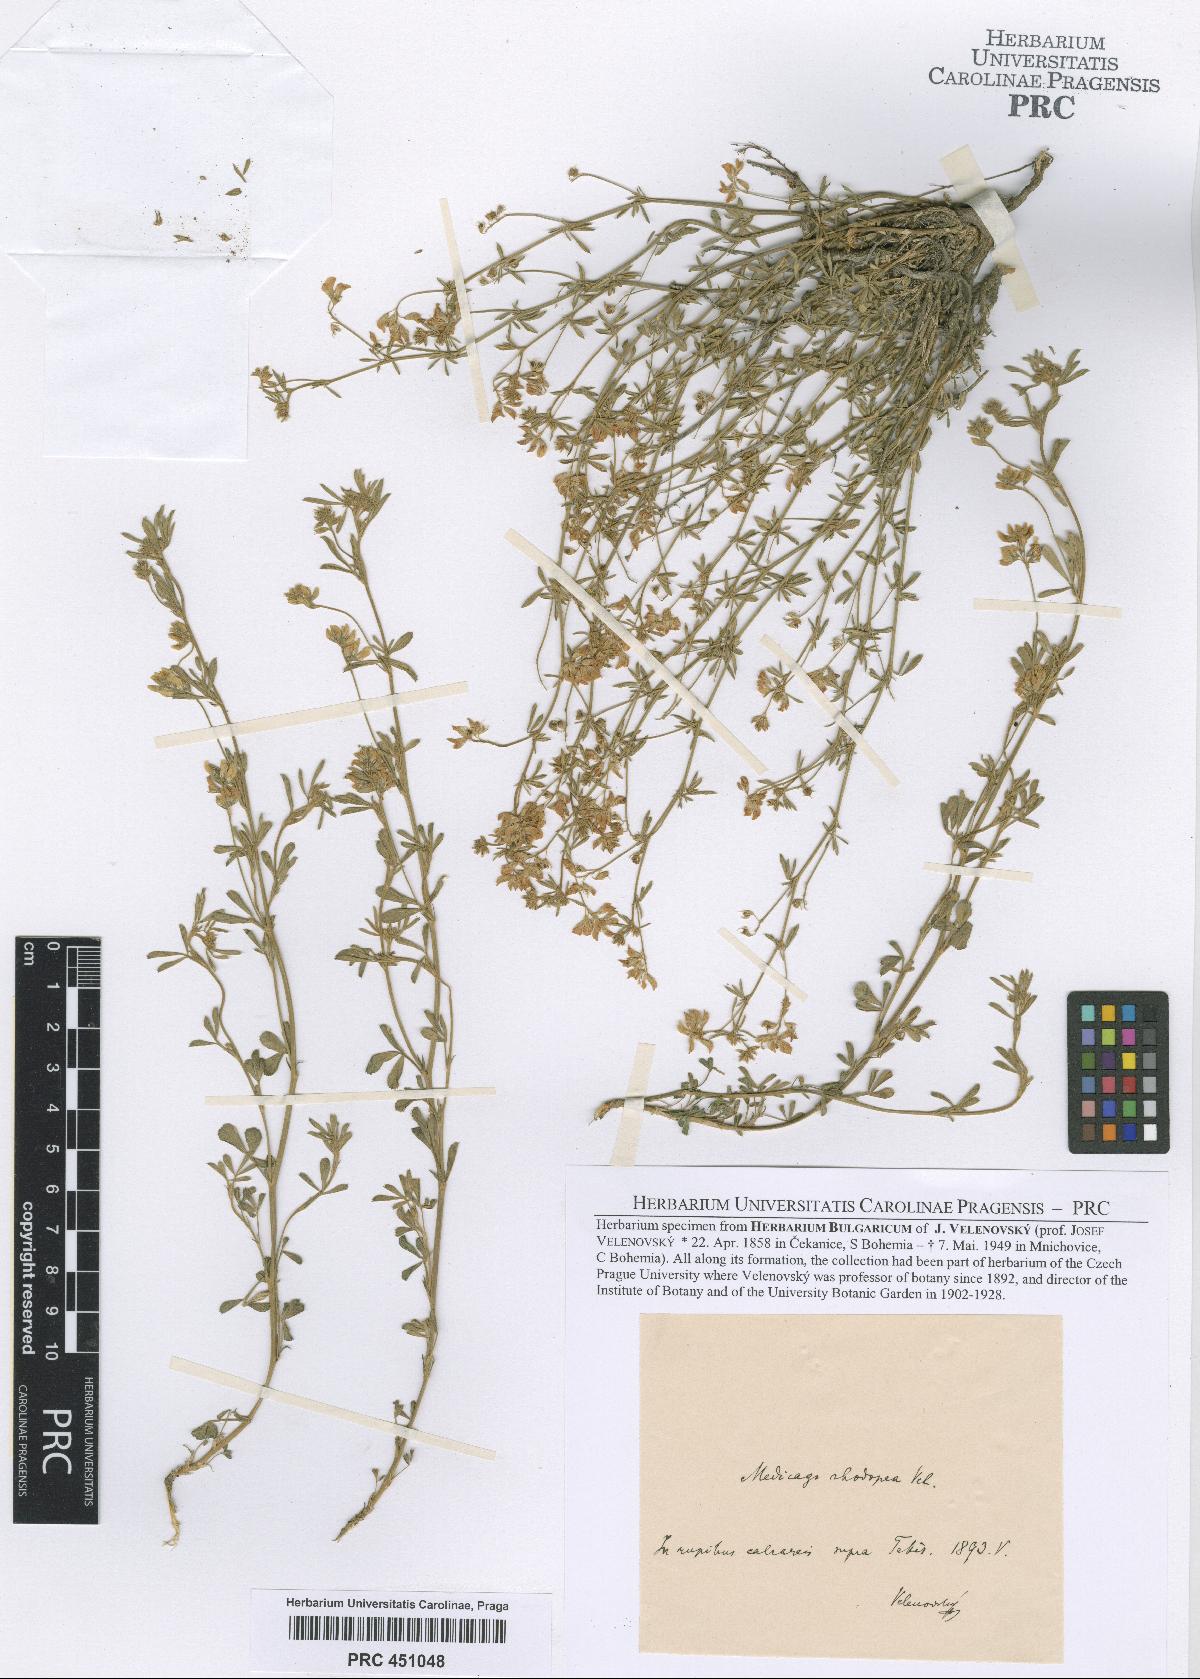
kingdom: Plantae
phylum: Tracheophyta
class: Magnoliopsida
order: Fabales
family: Fabaceae
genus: Medicago
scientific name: Medicago rhodopea
